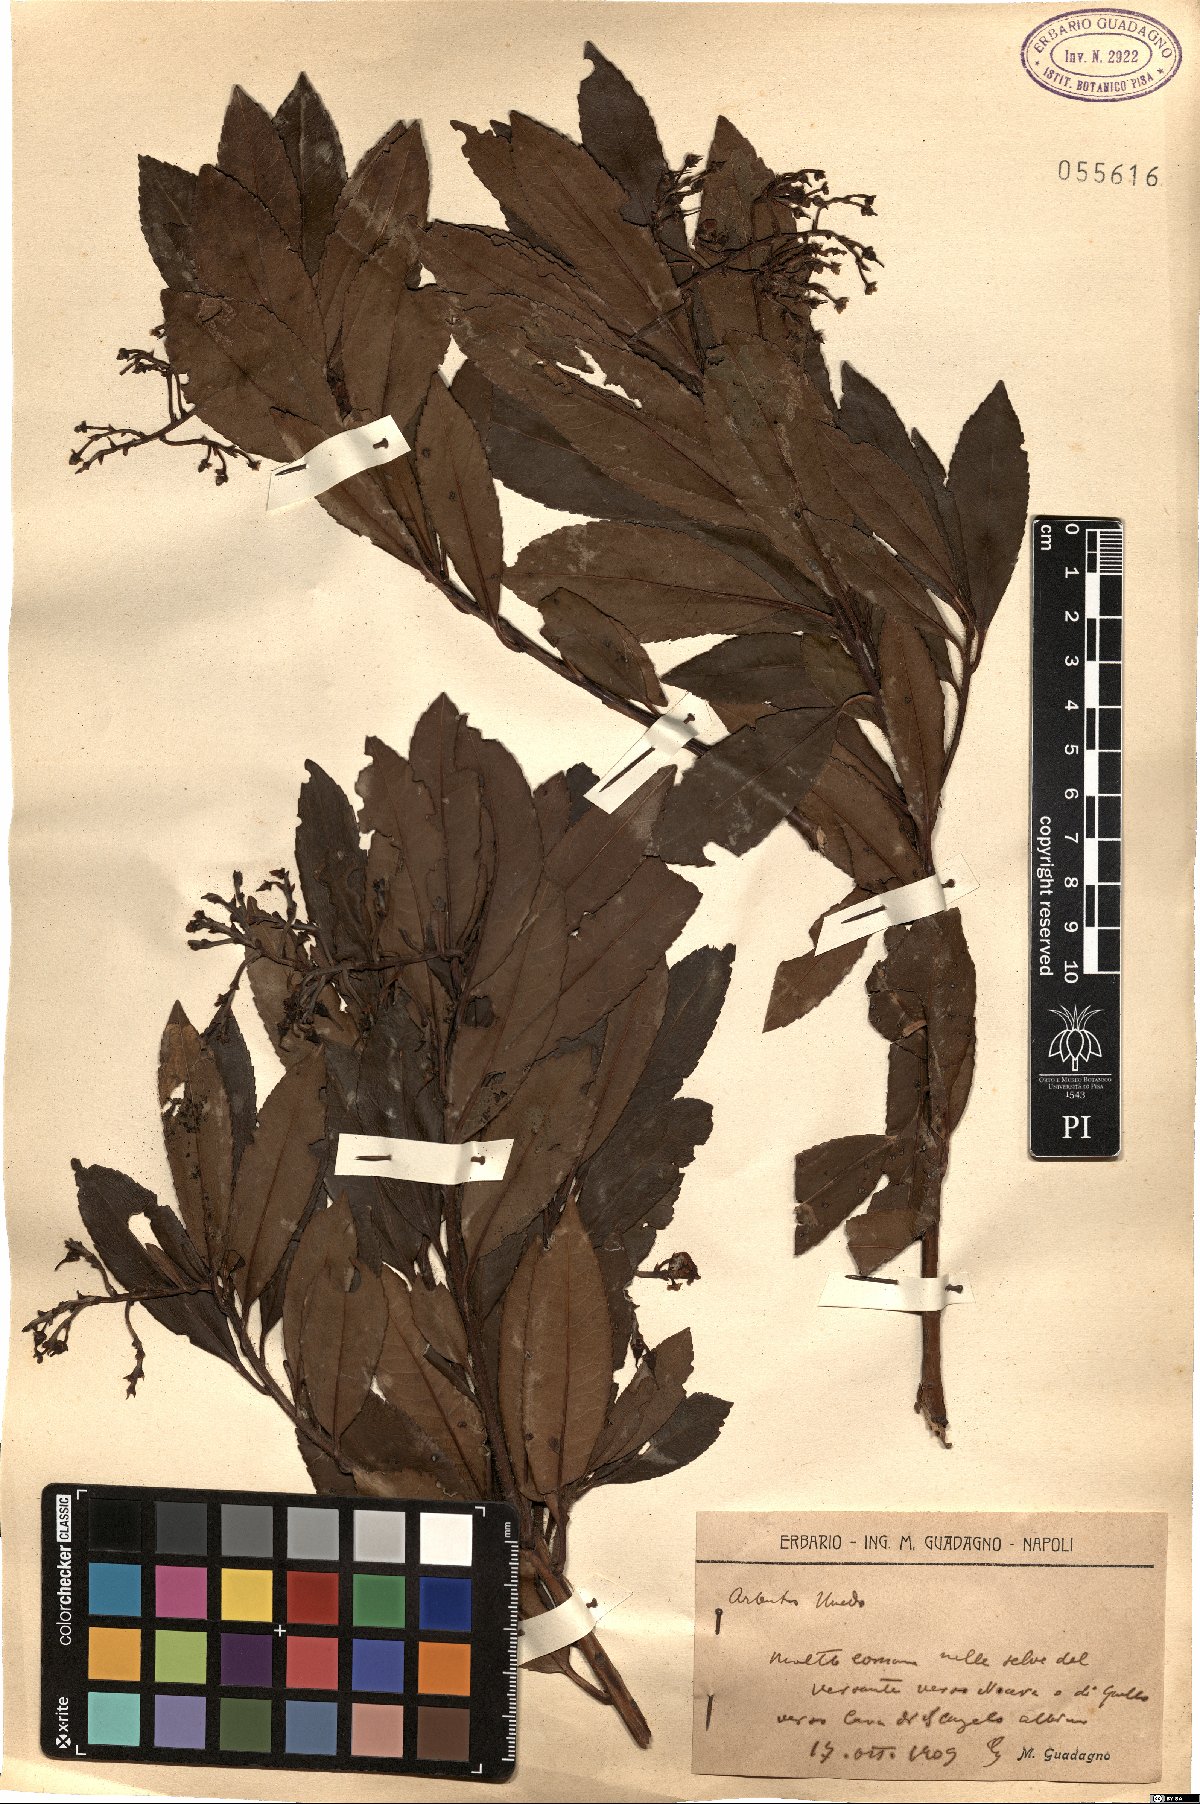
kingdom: Plantae
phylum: Tracheophyta
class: Magnoliopsida
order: Ericales
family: Ericaceae
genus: Arbutus
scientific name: Arbutus unedo
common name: Strawberry-tree
